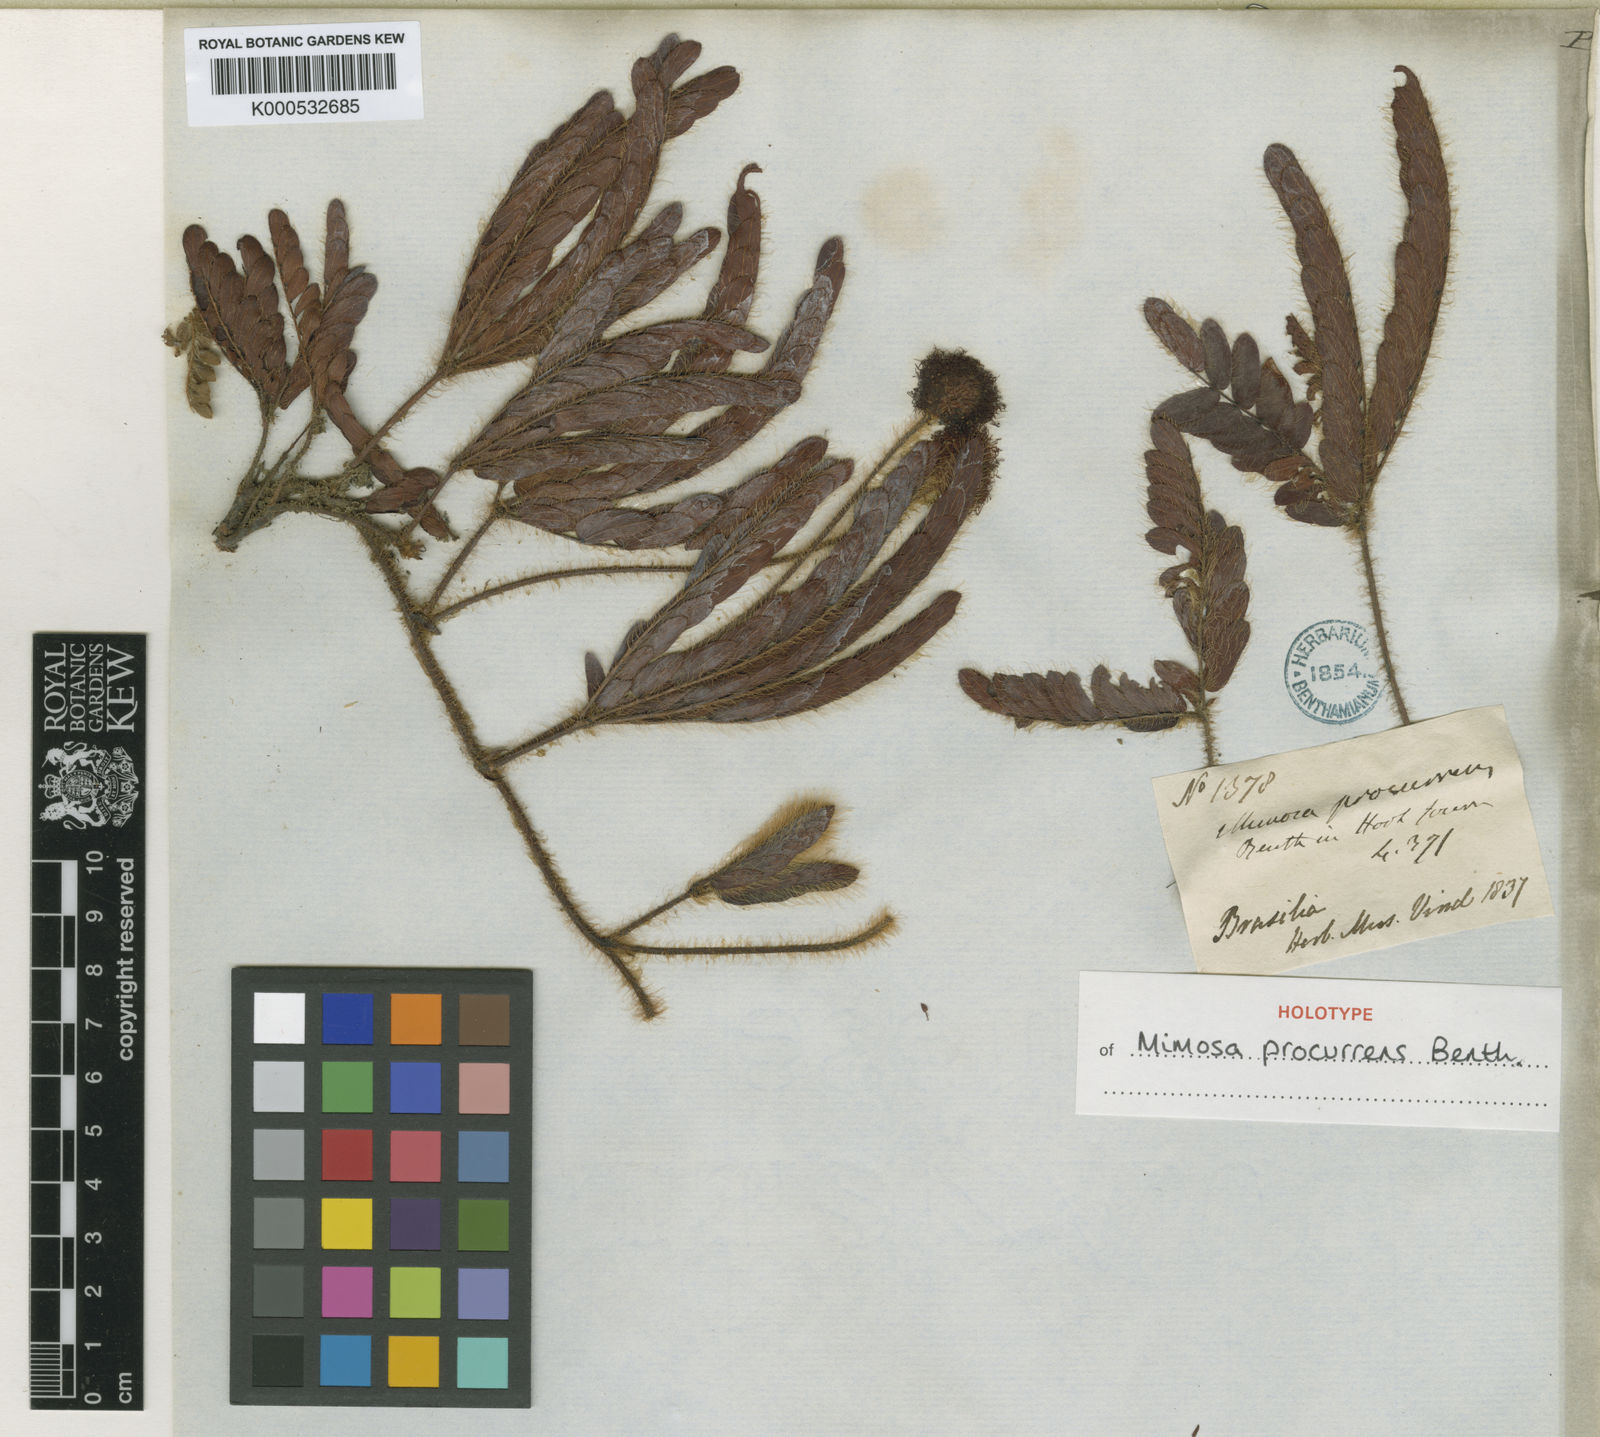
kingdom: Plantae
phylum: Tracheophyta
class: Magnoliopsida
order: Fabales
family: Fabaceae
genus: Mimosa
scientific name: Mimosa procurrens
